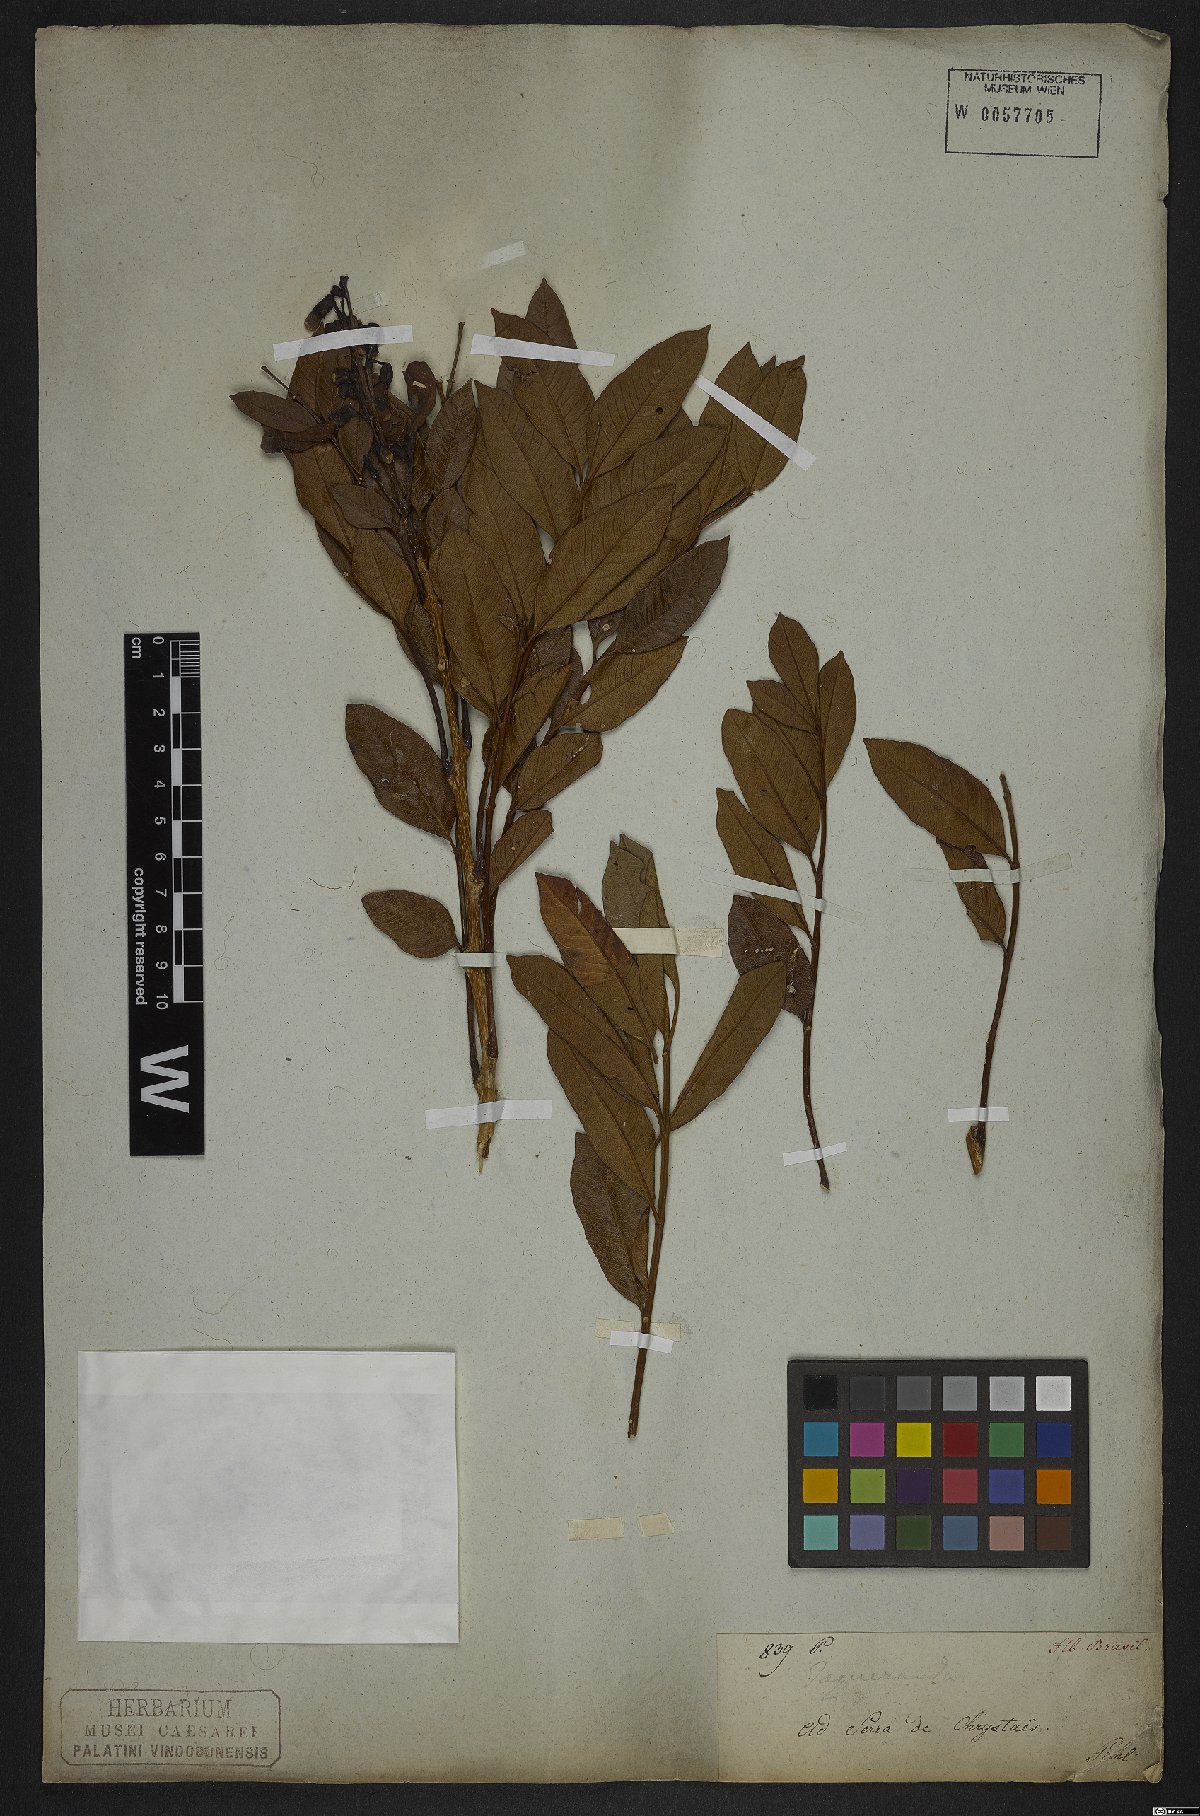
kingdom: Plantae
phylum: Tracheophyta
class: Magnoliopsida
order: Lamiales
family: Bignoniaceae
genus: Jacaranda
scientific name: Jacaranda
